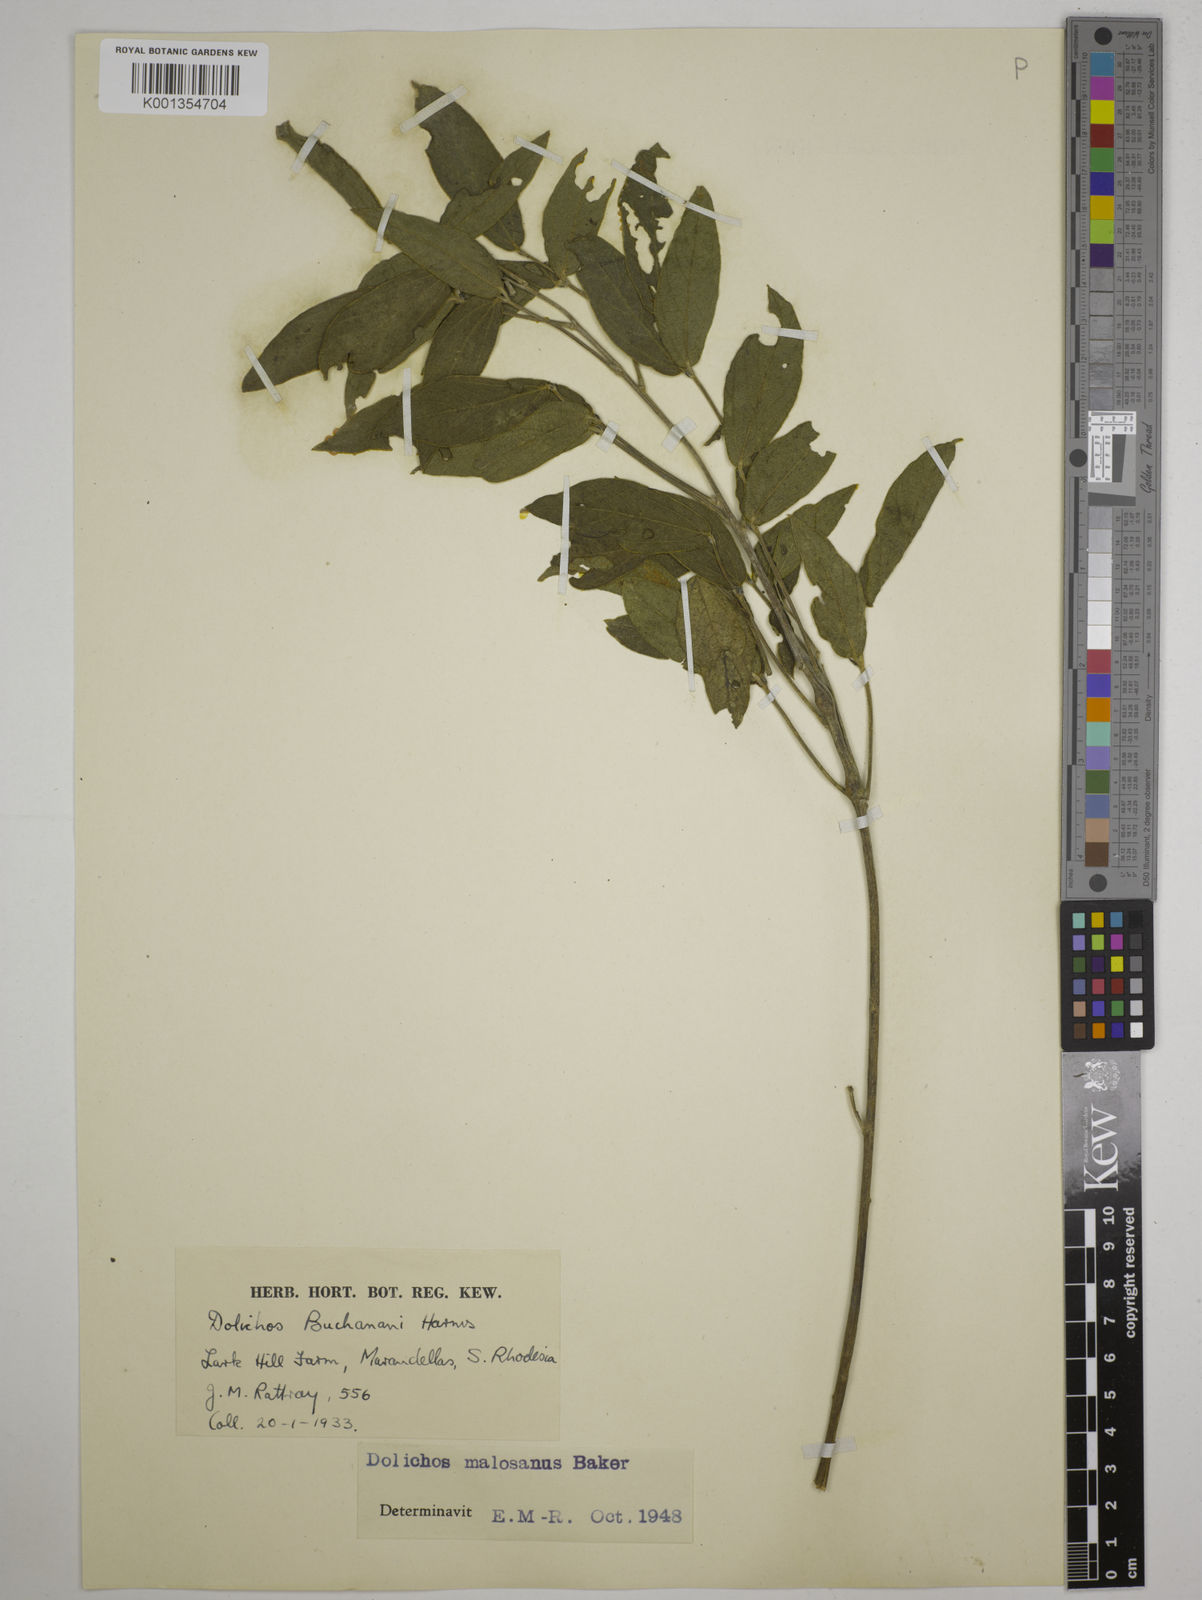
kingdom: Plantae
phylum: Tracheophyta
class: Magnoliopsida
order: Fabales
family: Fabaceae
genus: Dolichos
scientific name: Dolichos kilimandscharicus
